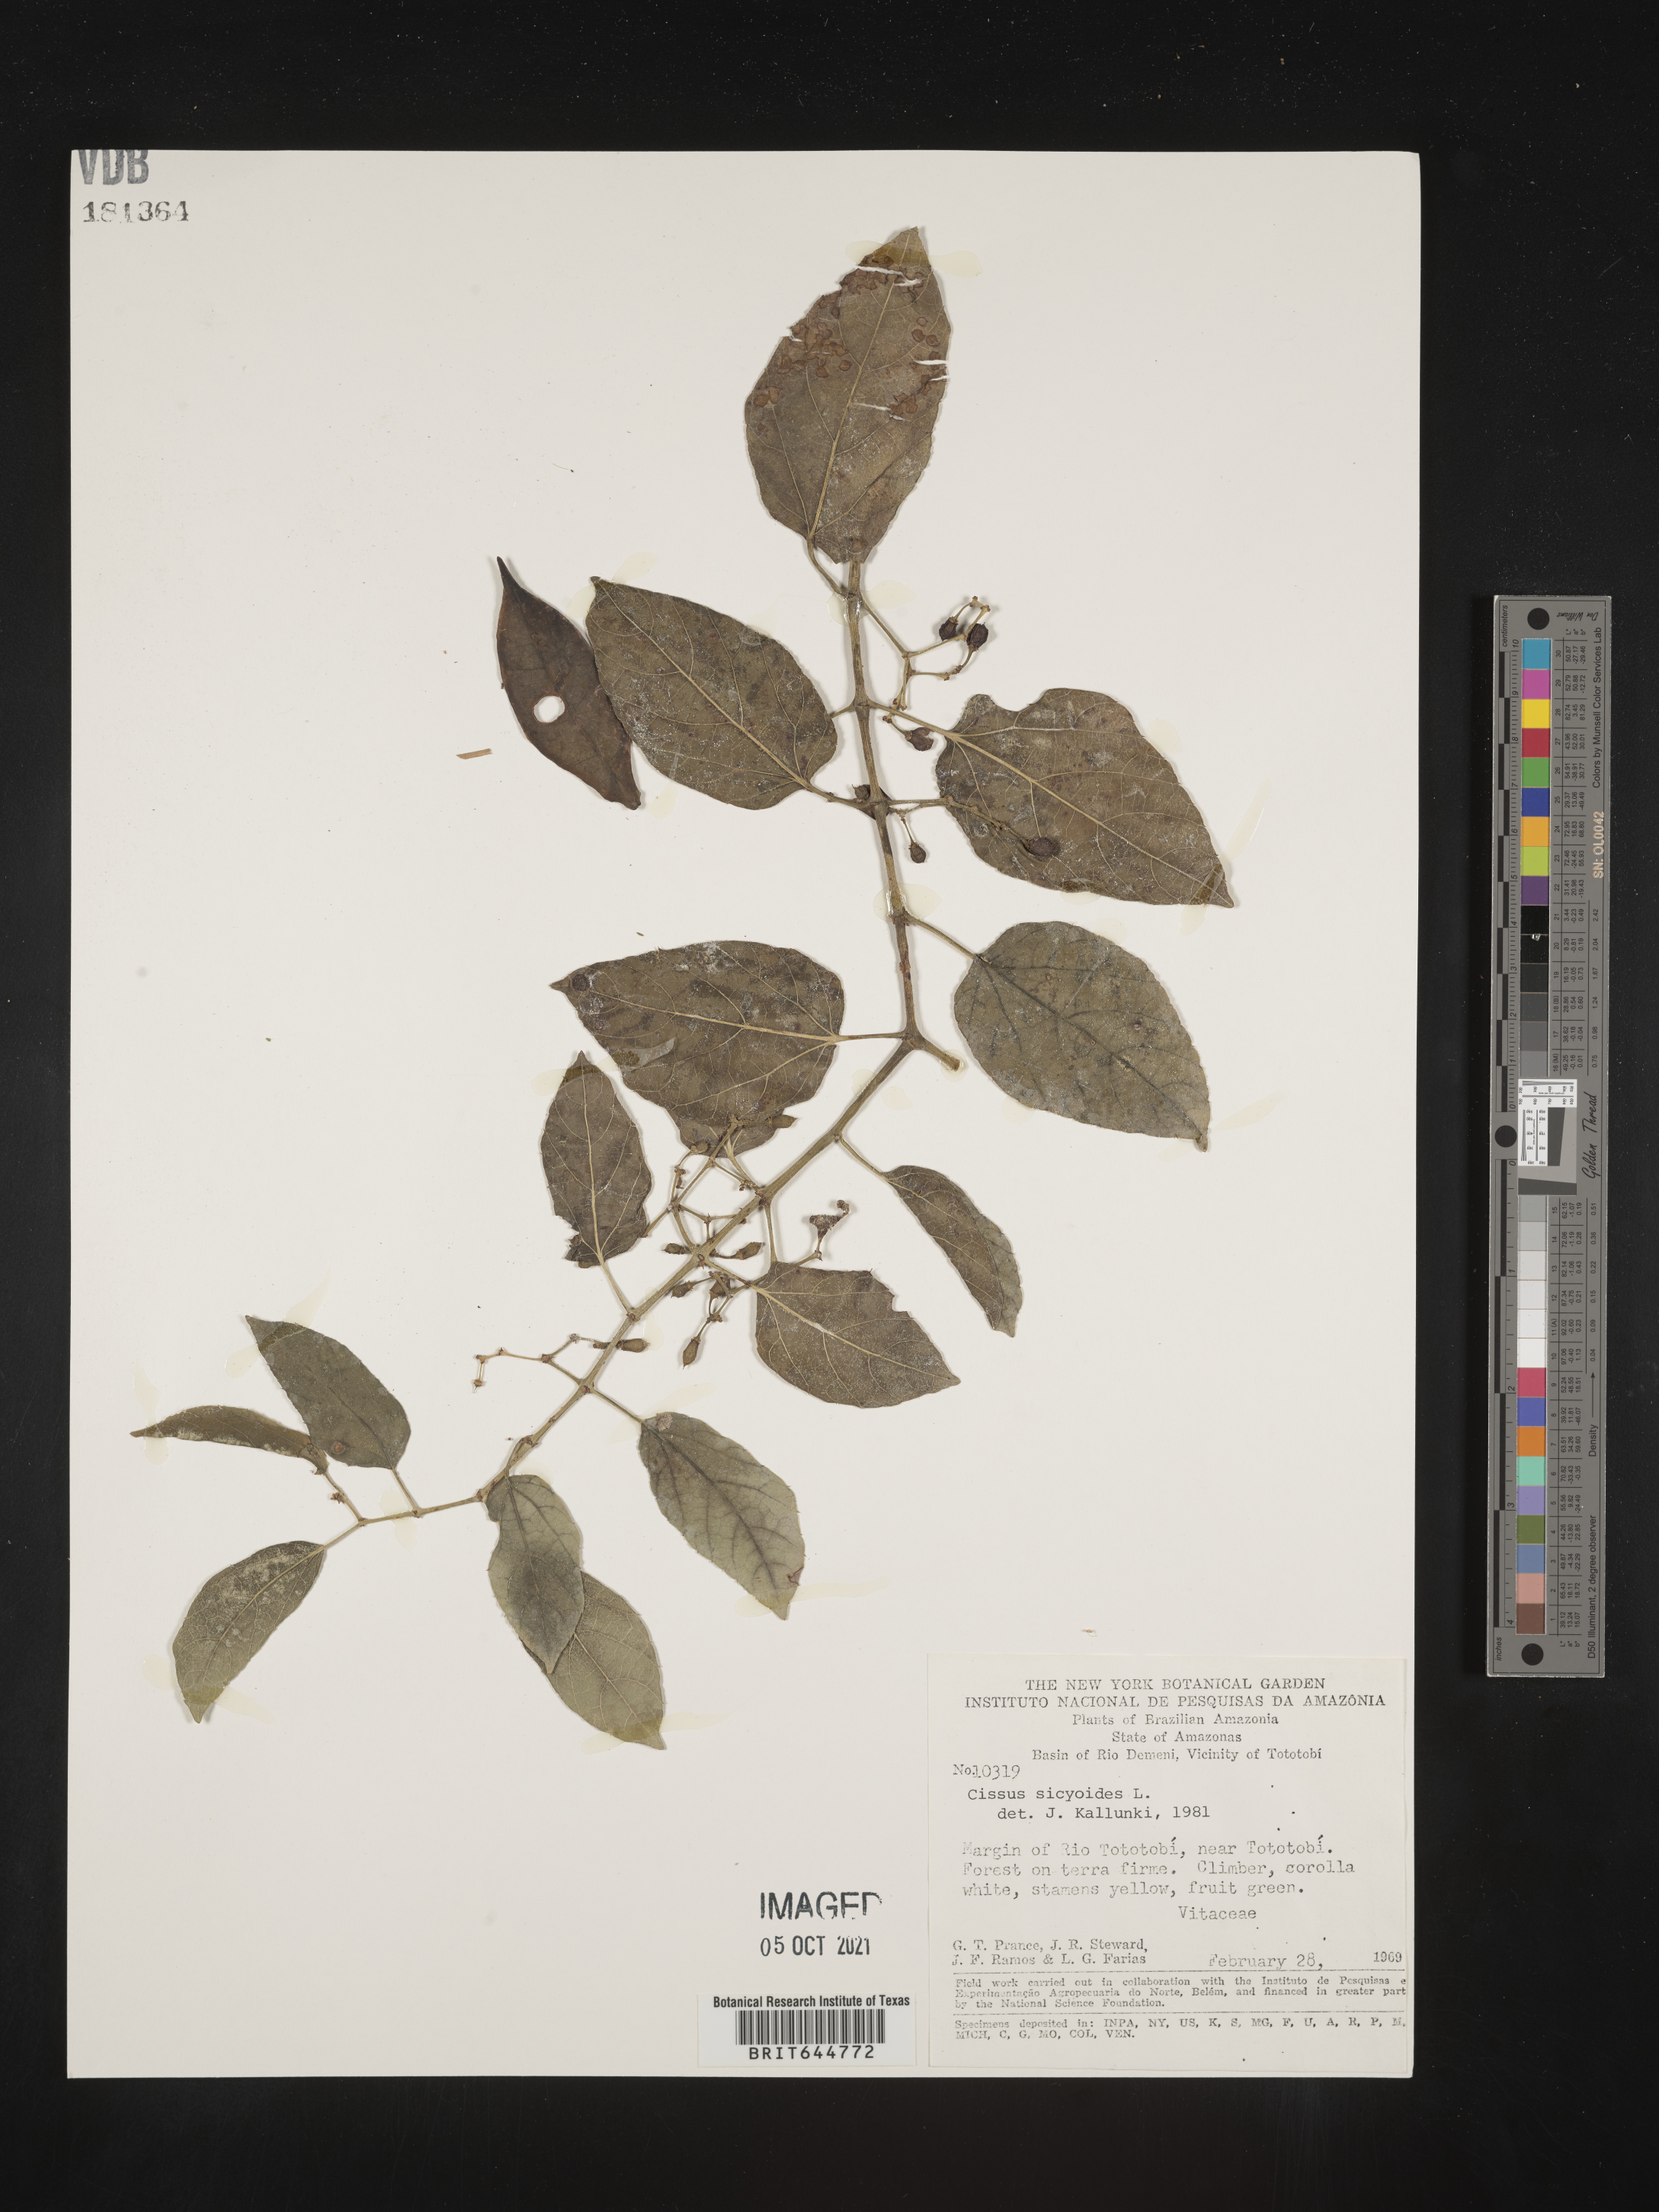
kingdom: Plantae
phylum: Tracheophyta
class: Magnoliopsida
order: Vitales
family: Vitaceae
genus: Cissus
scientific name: Cissus
